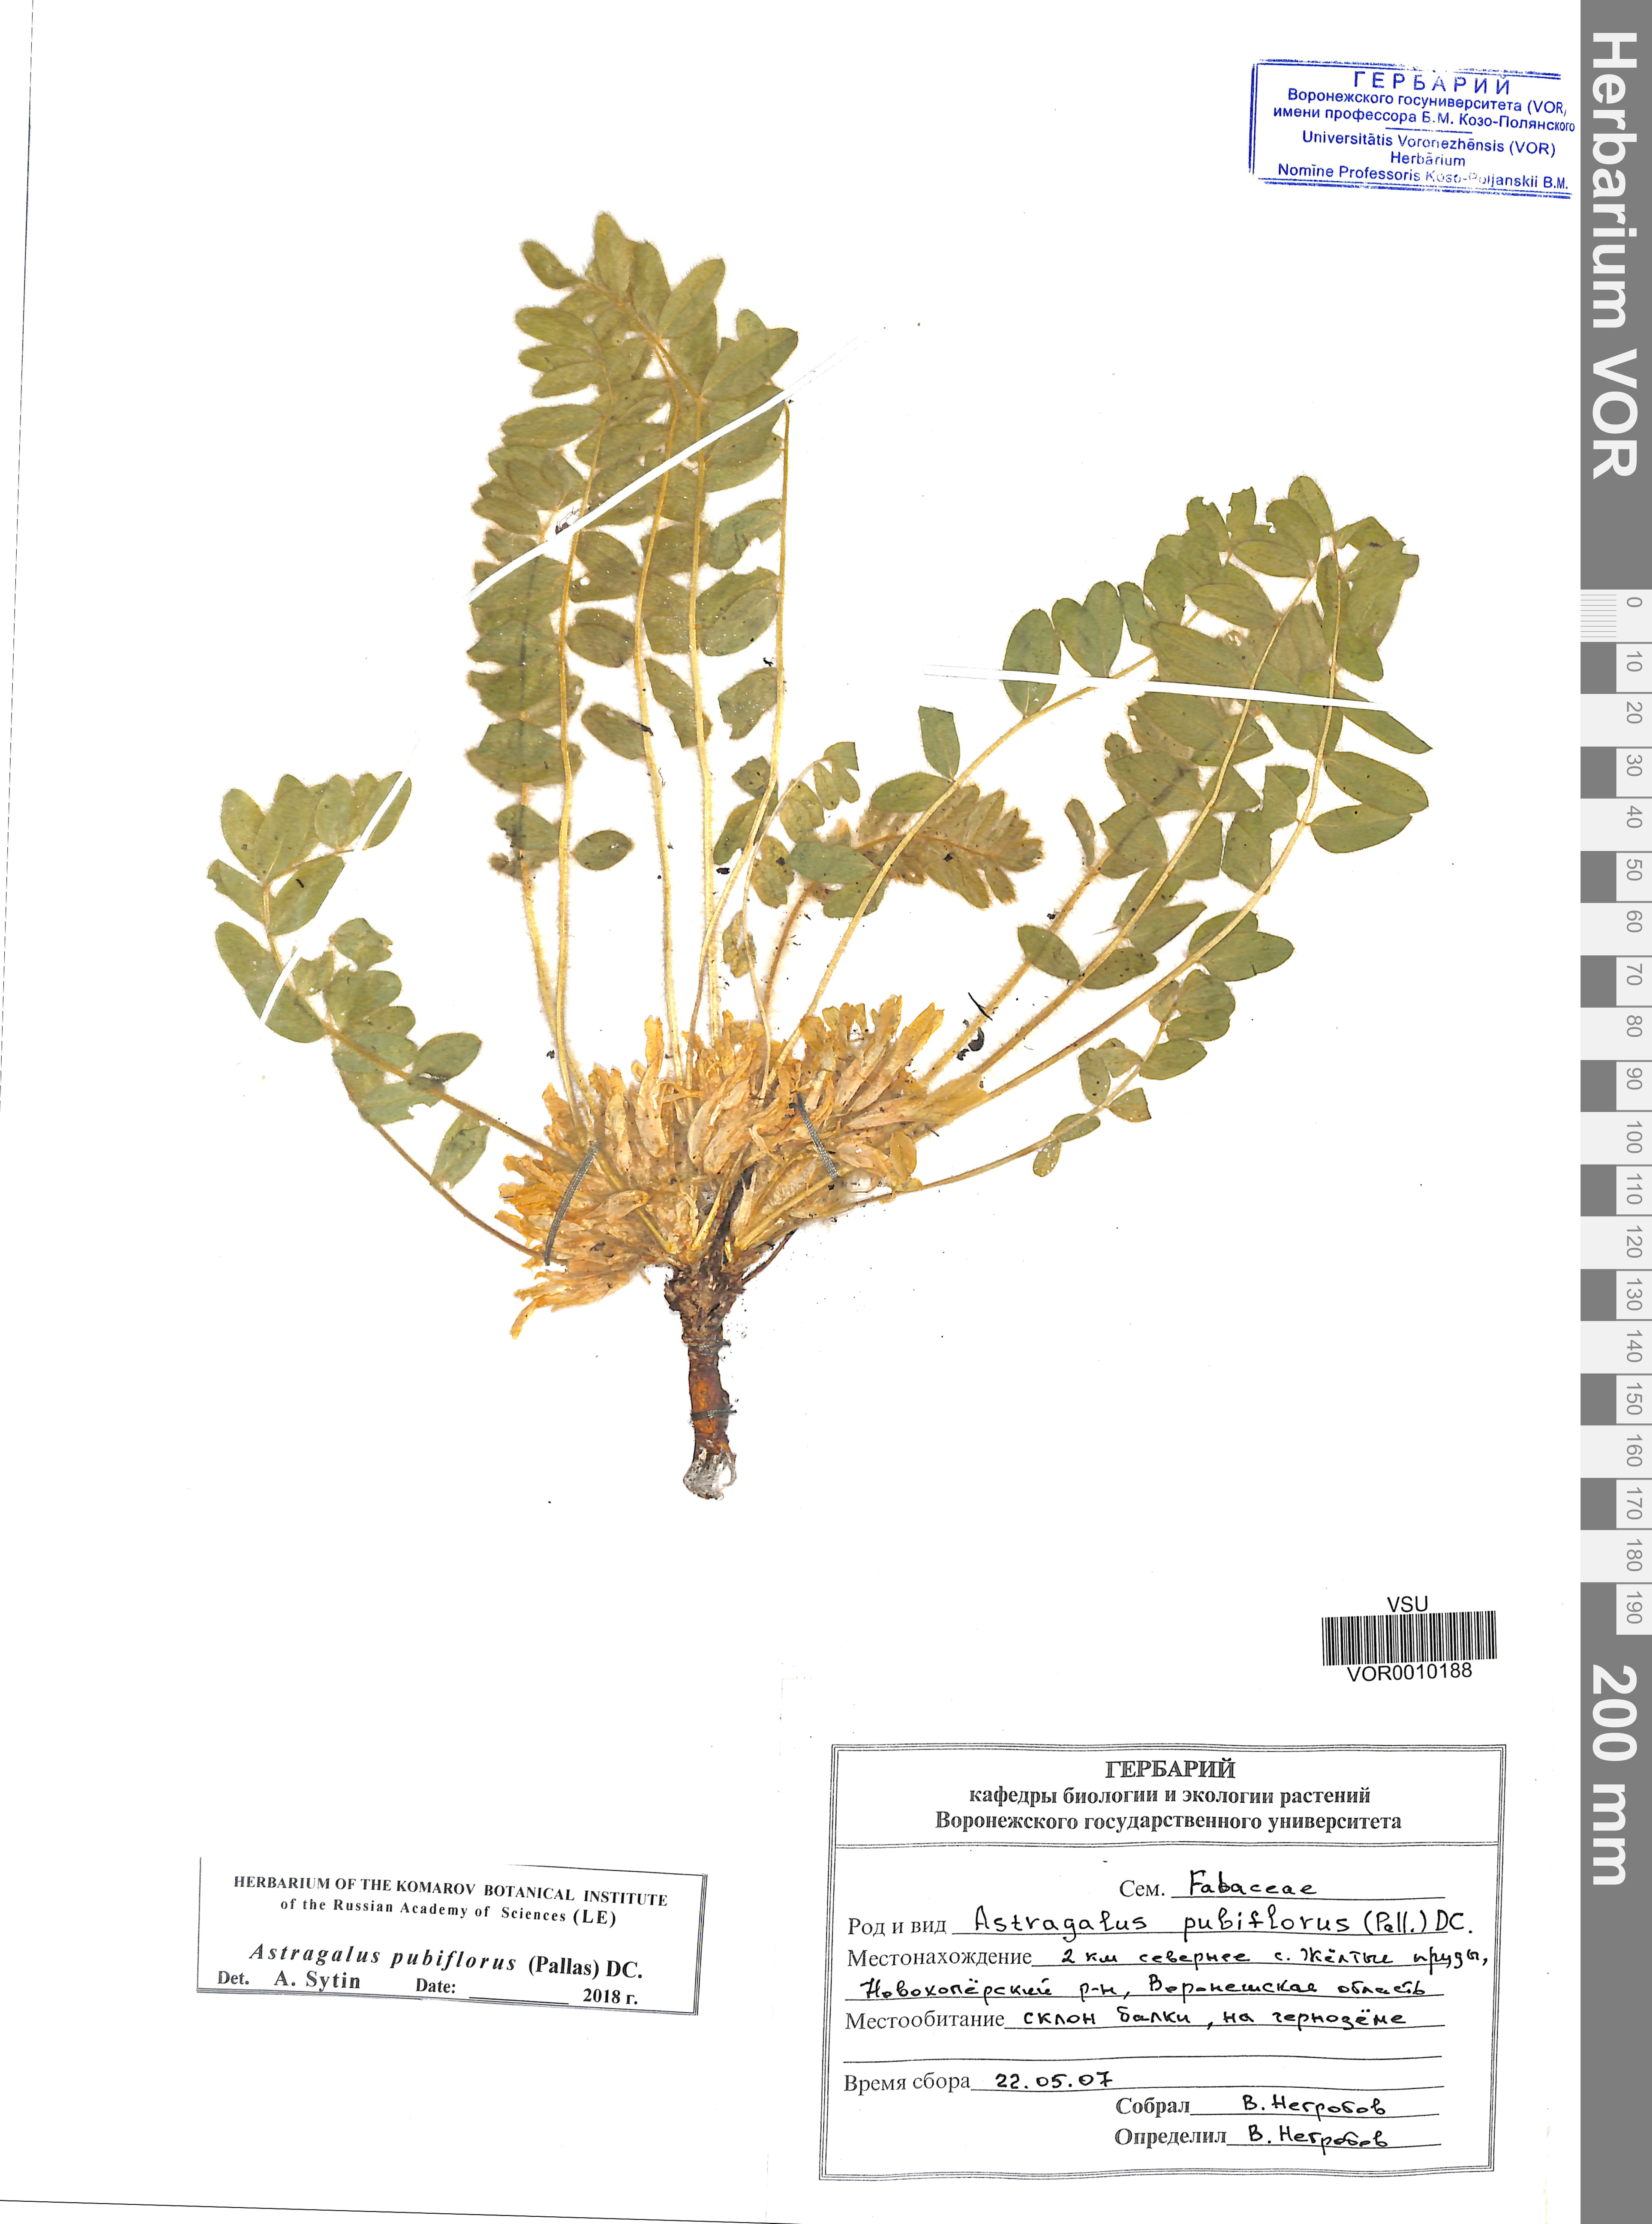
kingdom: Plantae
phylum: Tracheophyta
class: Magnoliopsida
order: Fabales
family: Fabaceae
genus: Astragalus
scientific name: Astragalus exscapus
